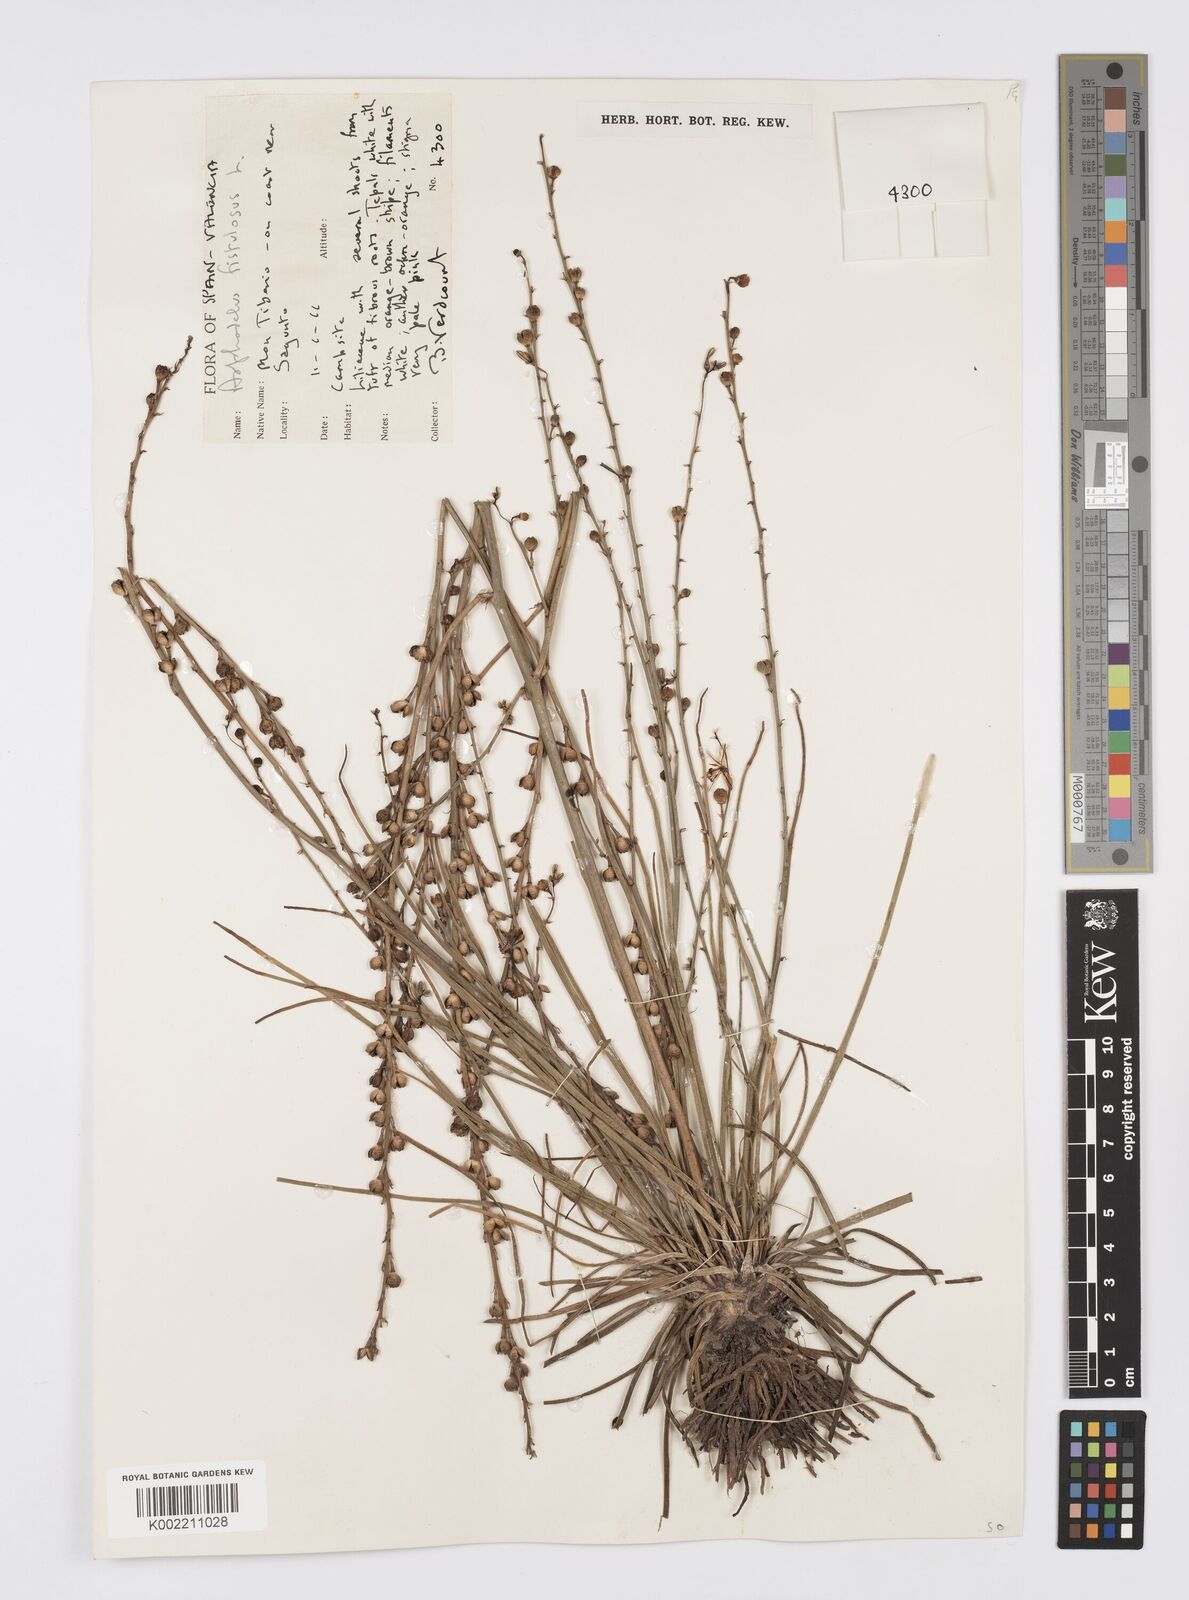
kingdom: Plantae
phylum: Tracheophyta
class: Liliopsida
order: Asparagales
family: Asphodelaceae
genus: Asphodelus
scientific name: Asphodelus fistulosus
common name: Onionweed
